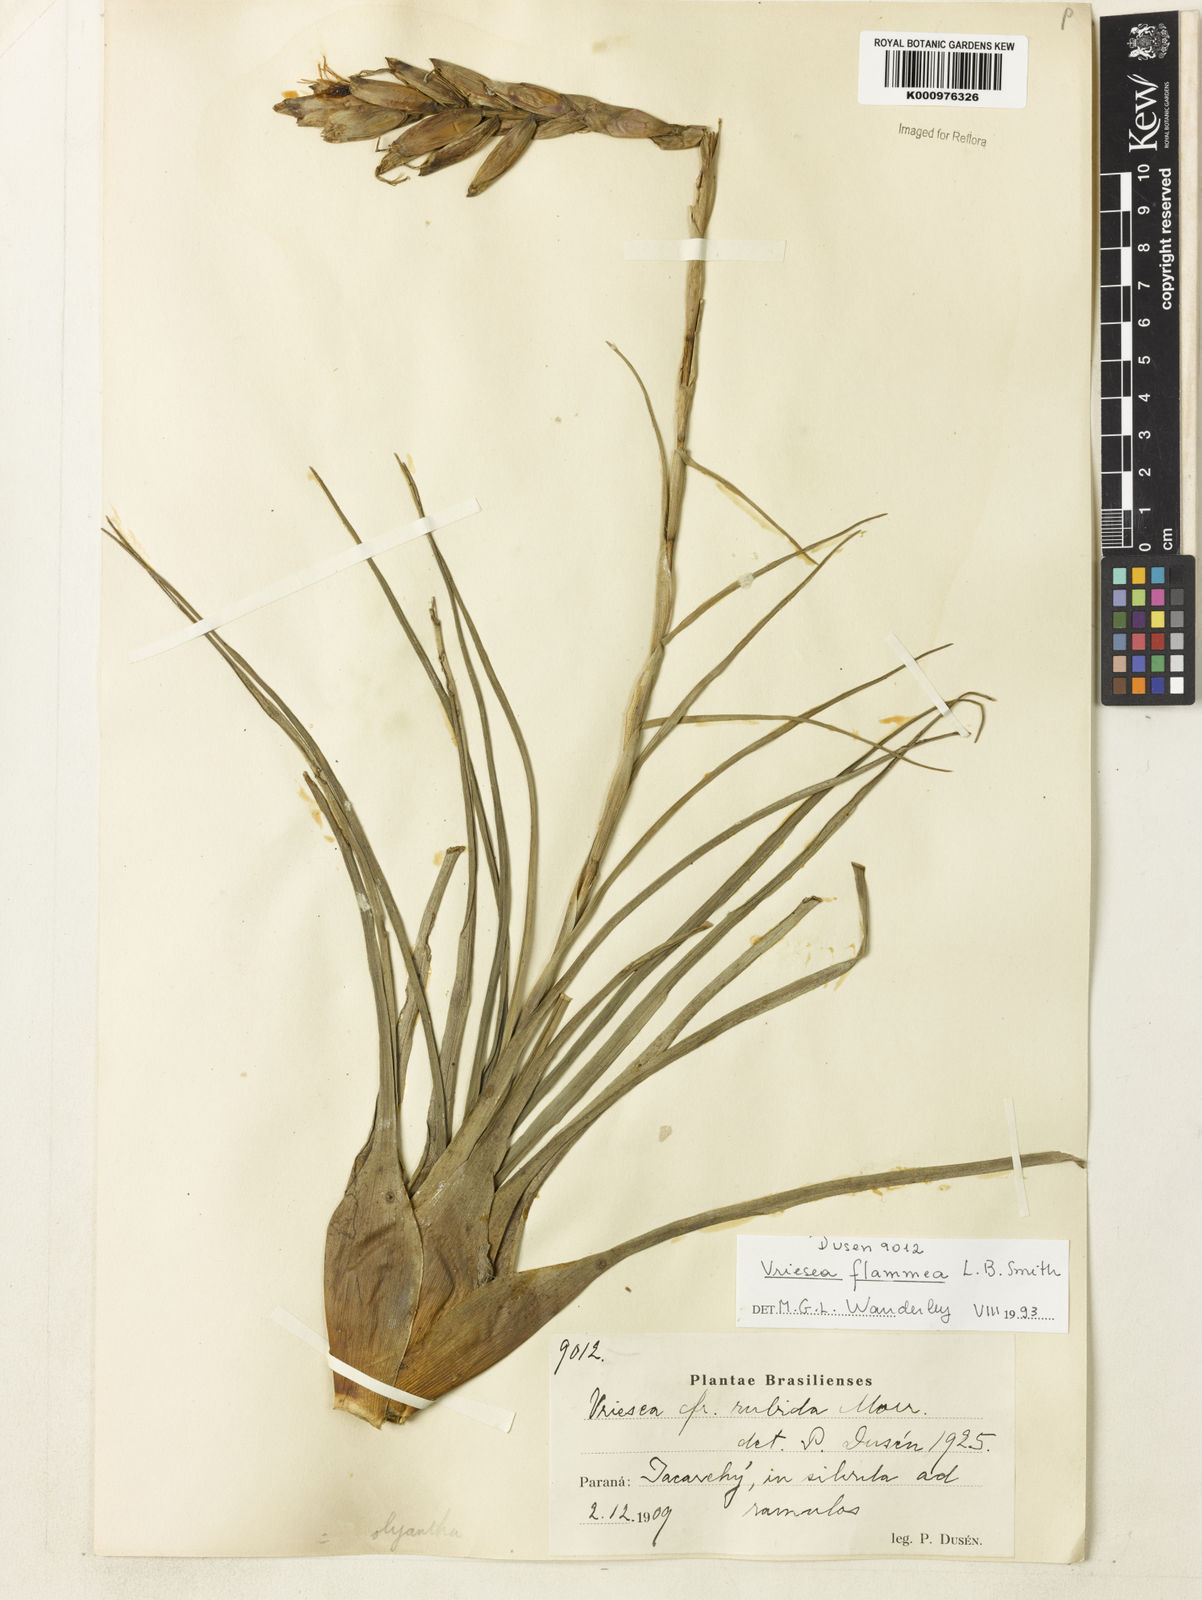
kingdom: Plantae
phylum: Tracheophyta
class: Liliopsida
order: Poales
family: Bromeliaceae
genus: Vriesea
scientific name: Vriesea flammea
